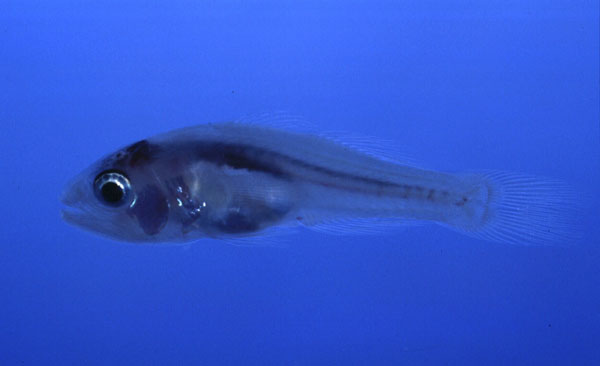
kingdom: Animalia
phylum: Chordata
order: Perciformes
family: Apogonidae
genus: Gymnapogon
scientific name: Gymnapogon africanus
